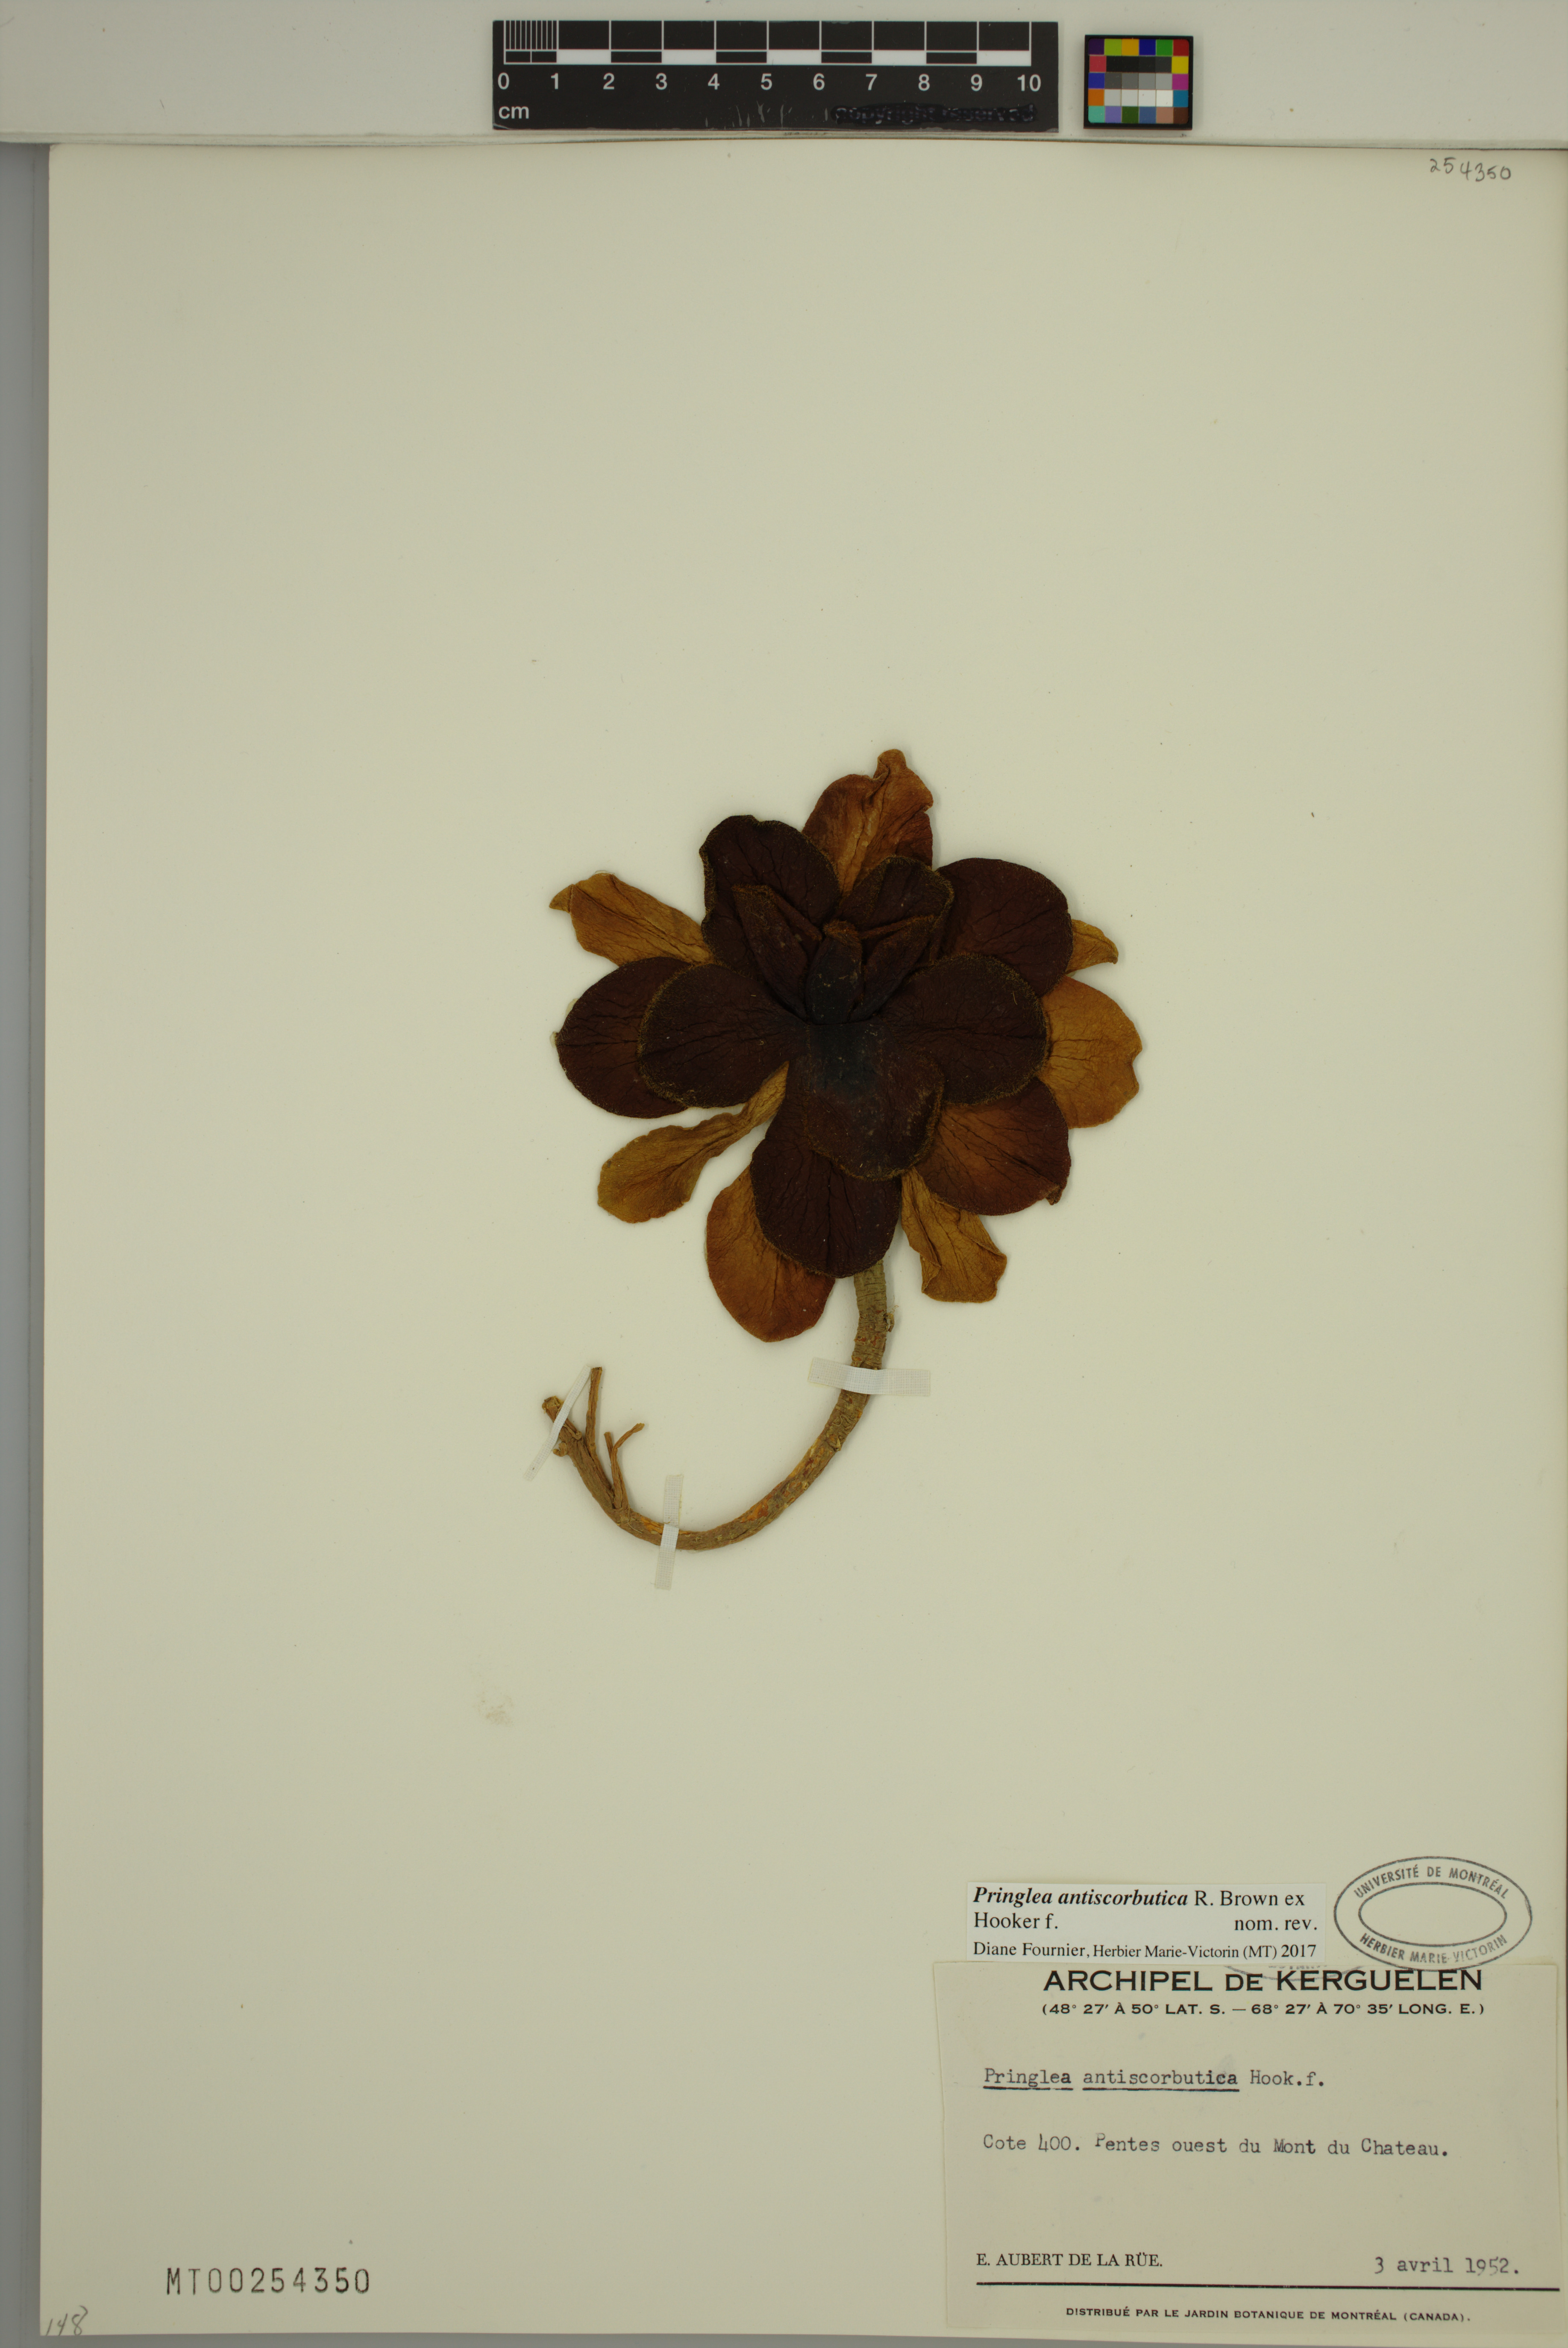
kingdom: Plantae
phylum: Tracheophyta
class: Magnoliopsida
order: Brassicales
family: Brassicaceae
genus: Pringlea
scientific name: Pringlea antiscorbutica
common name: Kerguelen-cabbage
